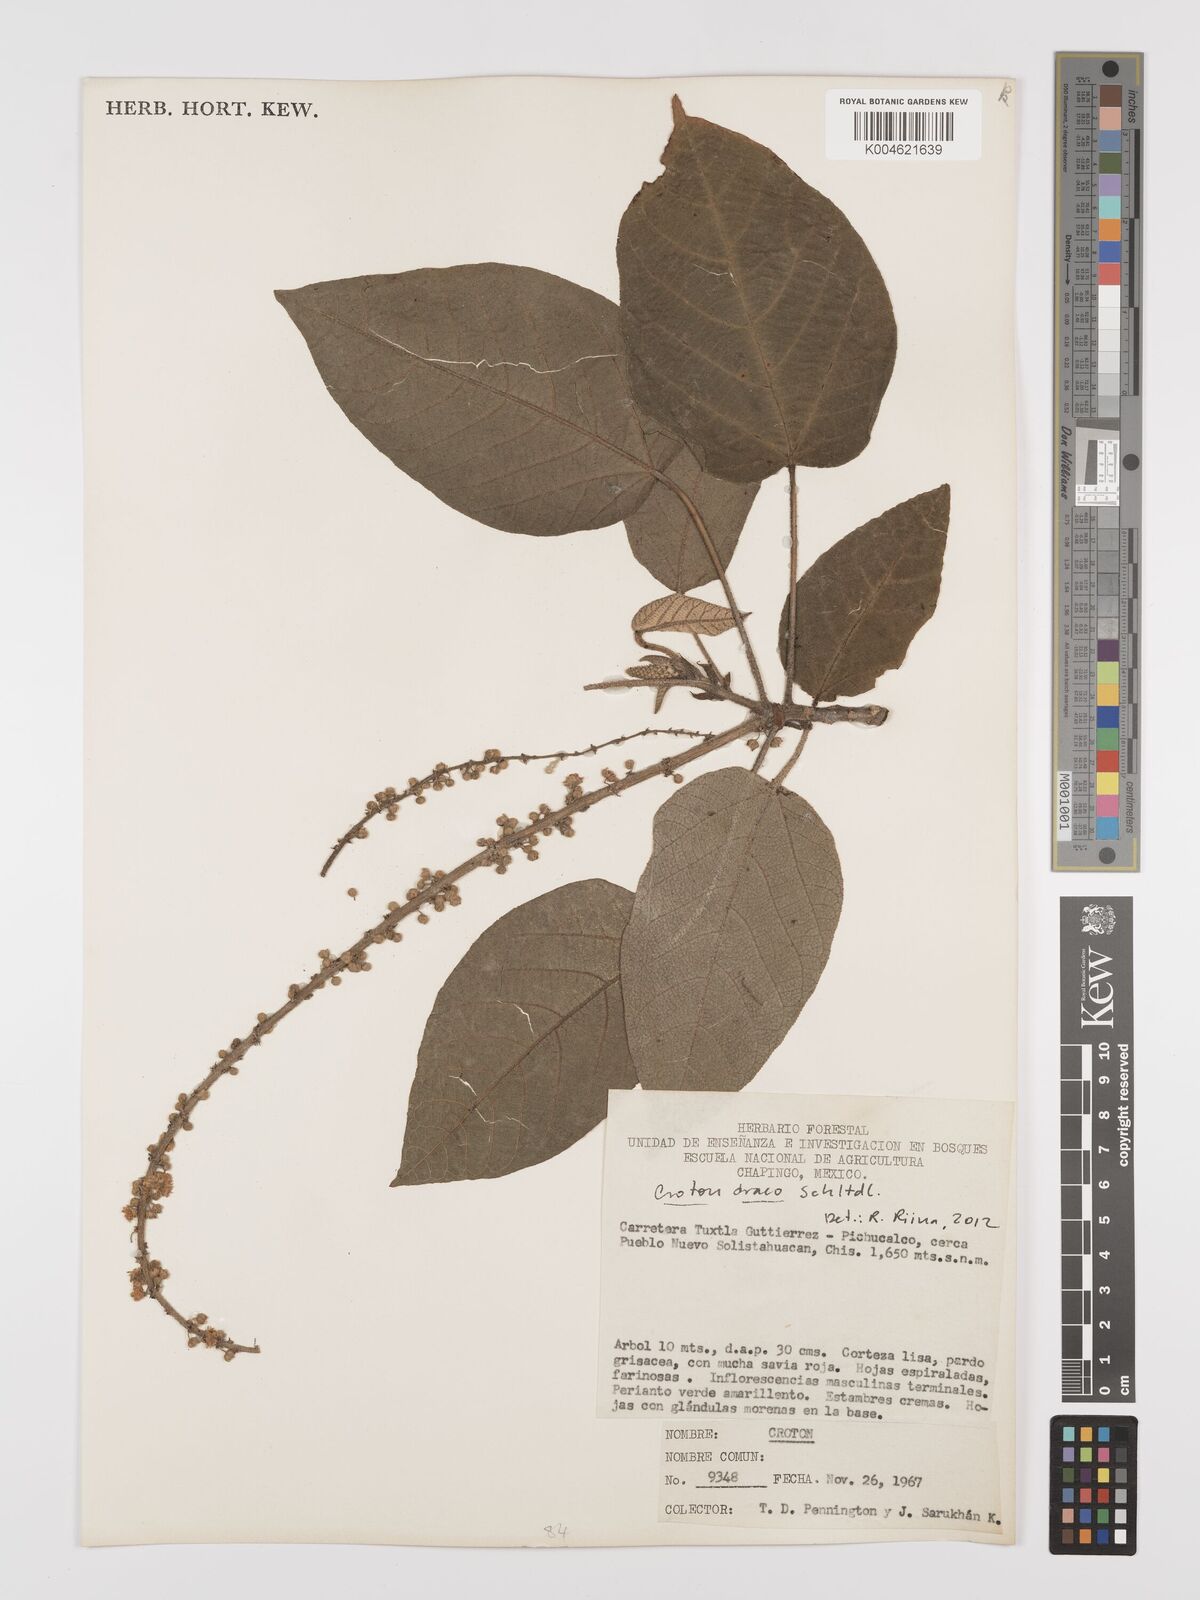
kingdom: Plantae
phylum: Tracheophyta
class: Magnoliopsida
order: Malpighiales
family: Euphorbiaceae
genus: Croton
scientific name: Croton draco
